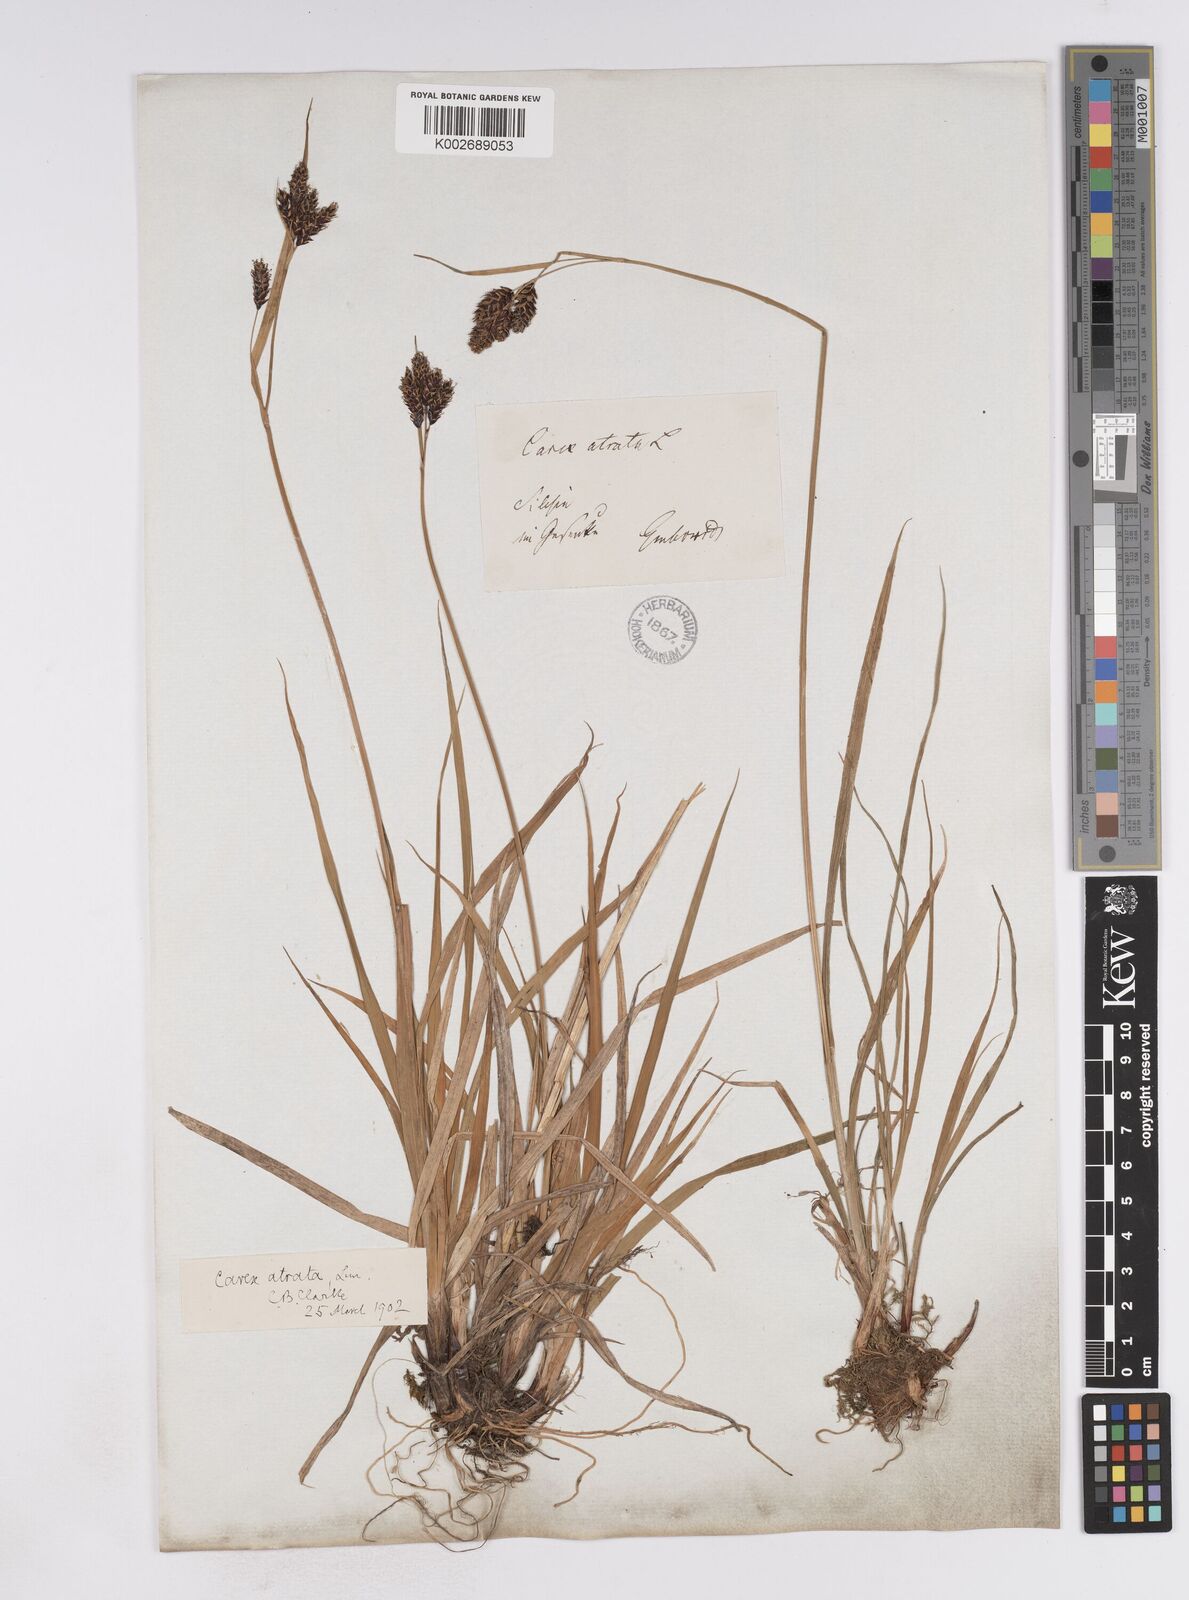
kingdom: Plantae
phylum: Tracheophyta
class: Liliopsida
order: Poales
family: Cyperaceae
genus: Carex
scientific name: Carex atrata
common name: Black alpine sedge
